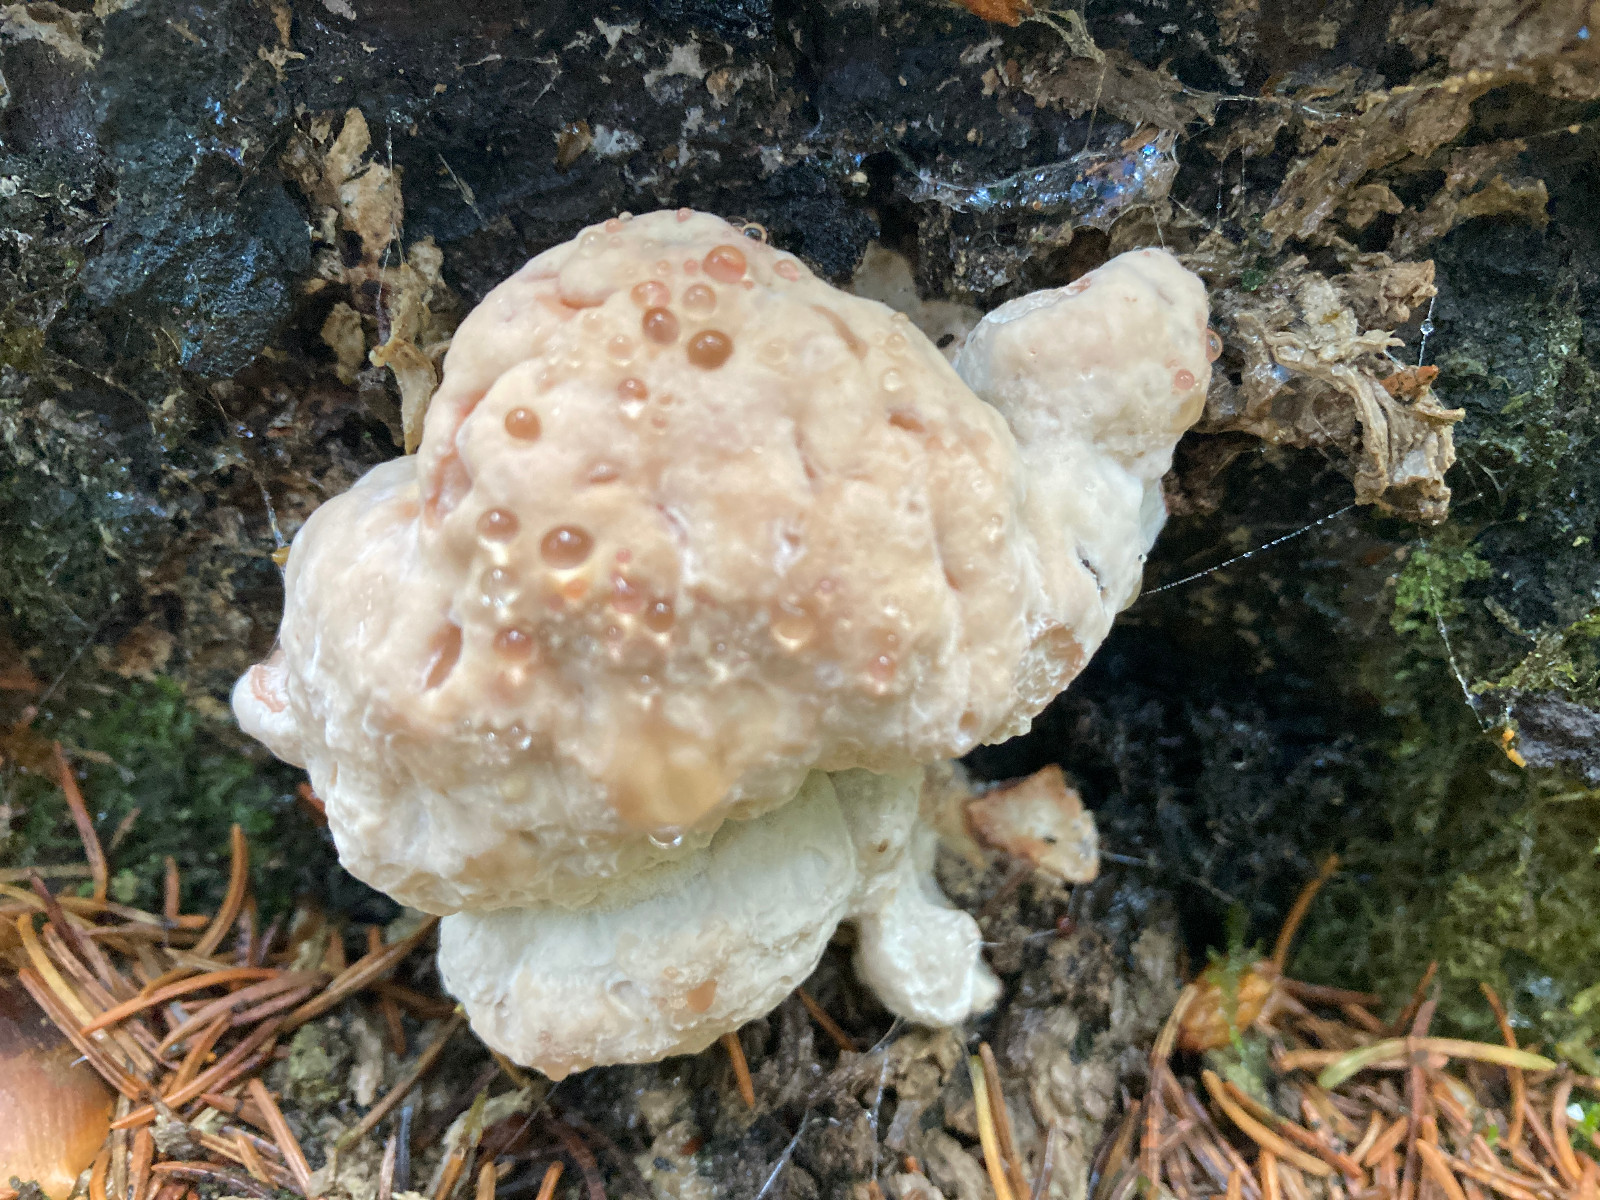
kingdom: Fungi
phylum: Basidiomycota
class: Agaricomycetes
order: Polyporales
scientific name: Polyporales
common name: poresvampordenen
